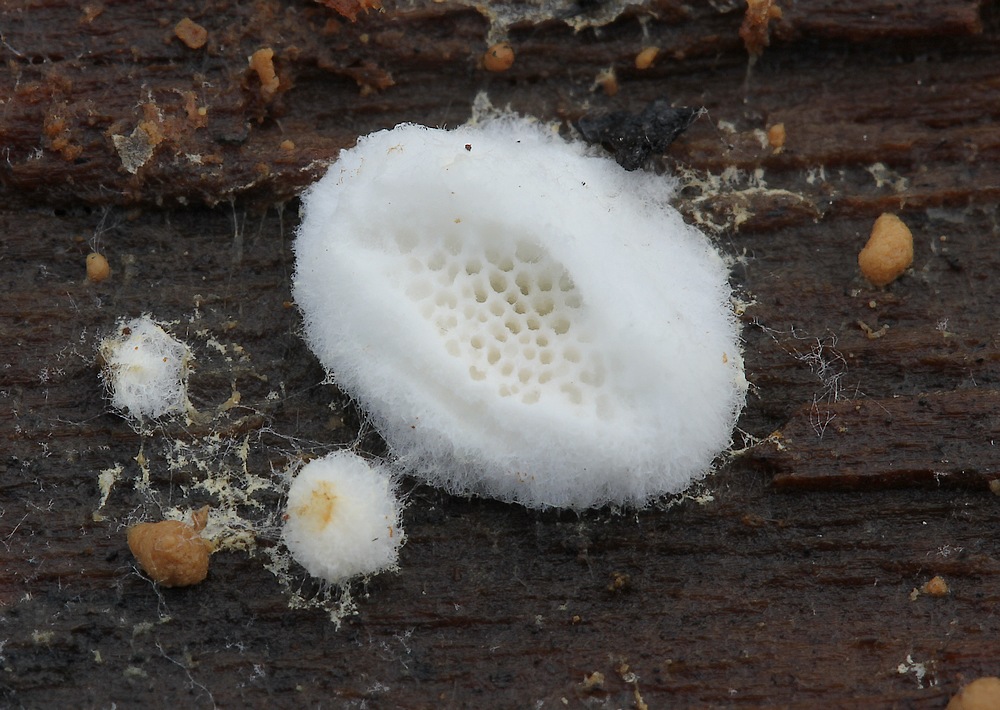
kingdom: Fungi
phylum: Basidiomycota
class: Agaricomycetes
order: Polyporales
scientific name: Polyporales
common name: poresvampordenen
